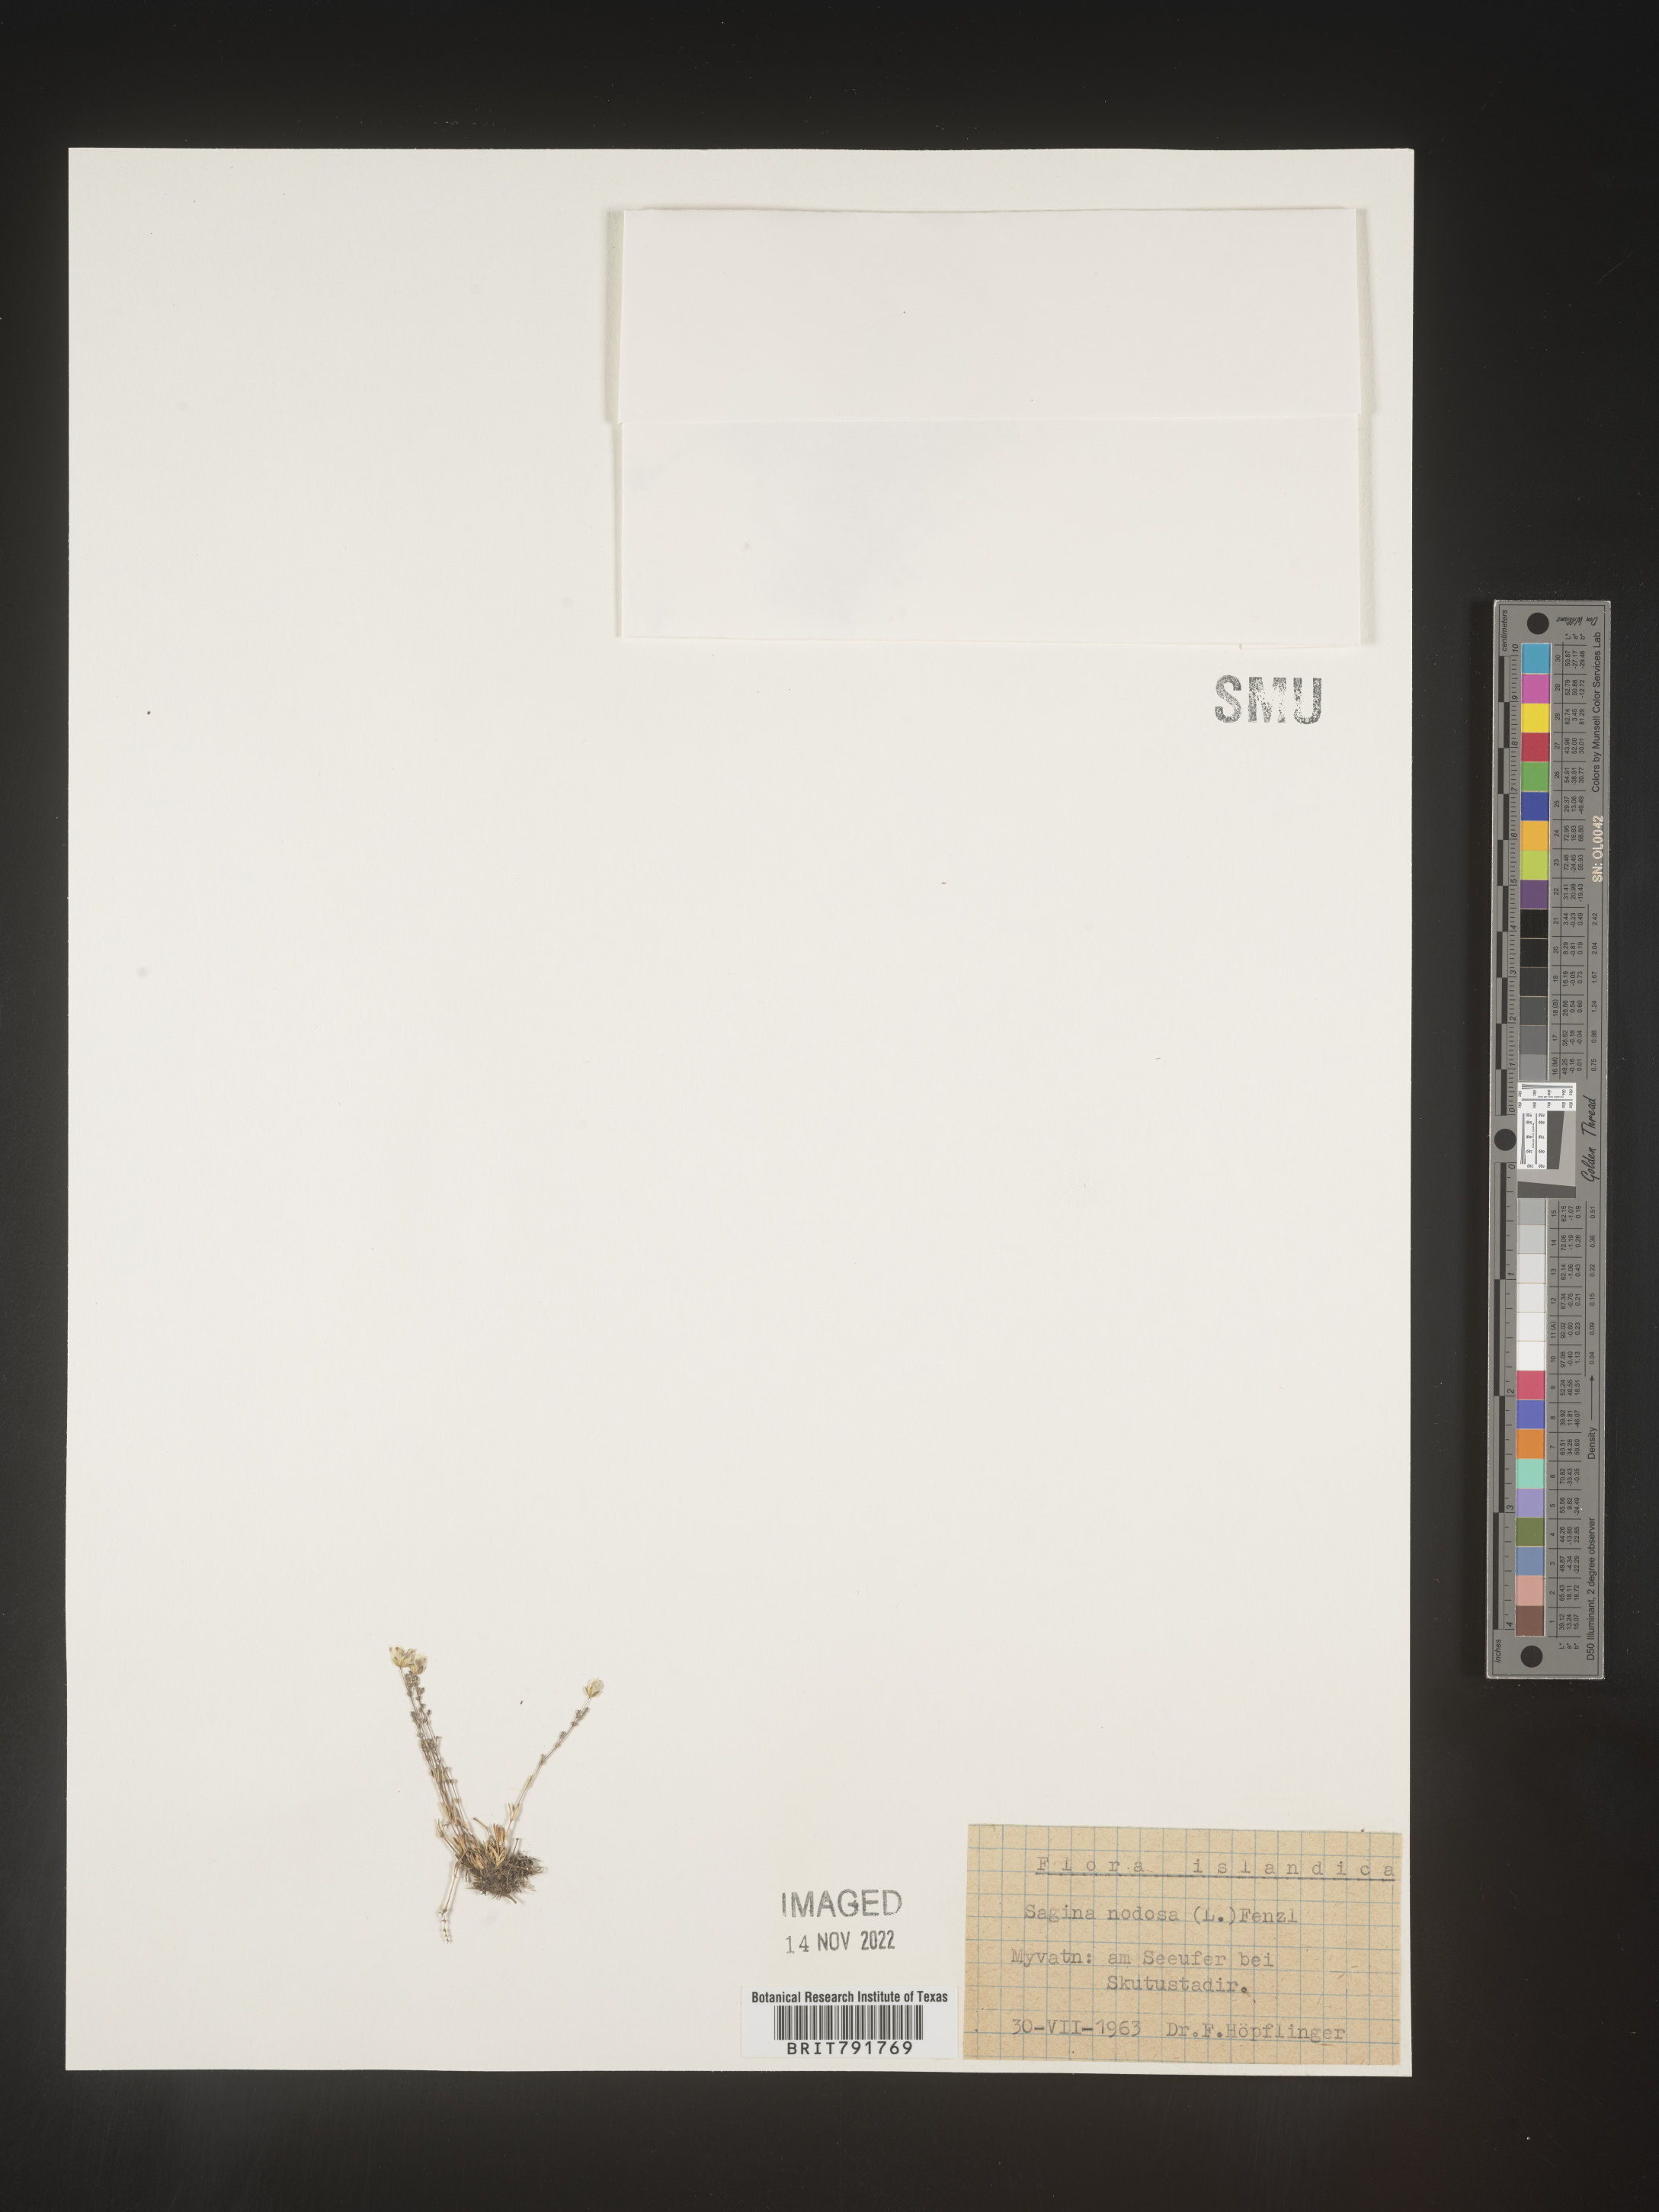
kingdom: Plantae
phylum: Tracheophyta
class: Magnoliopsida
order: Caryophyllales
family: Caryophyllaceae
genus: Sagina
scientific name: Sagina
